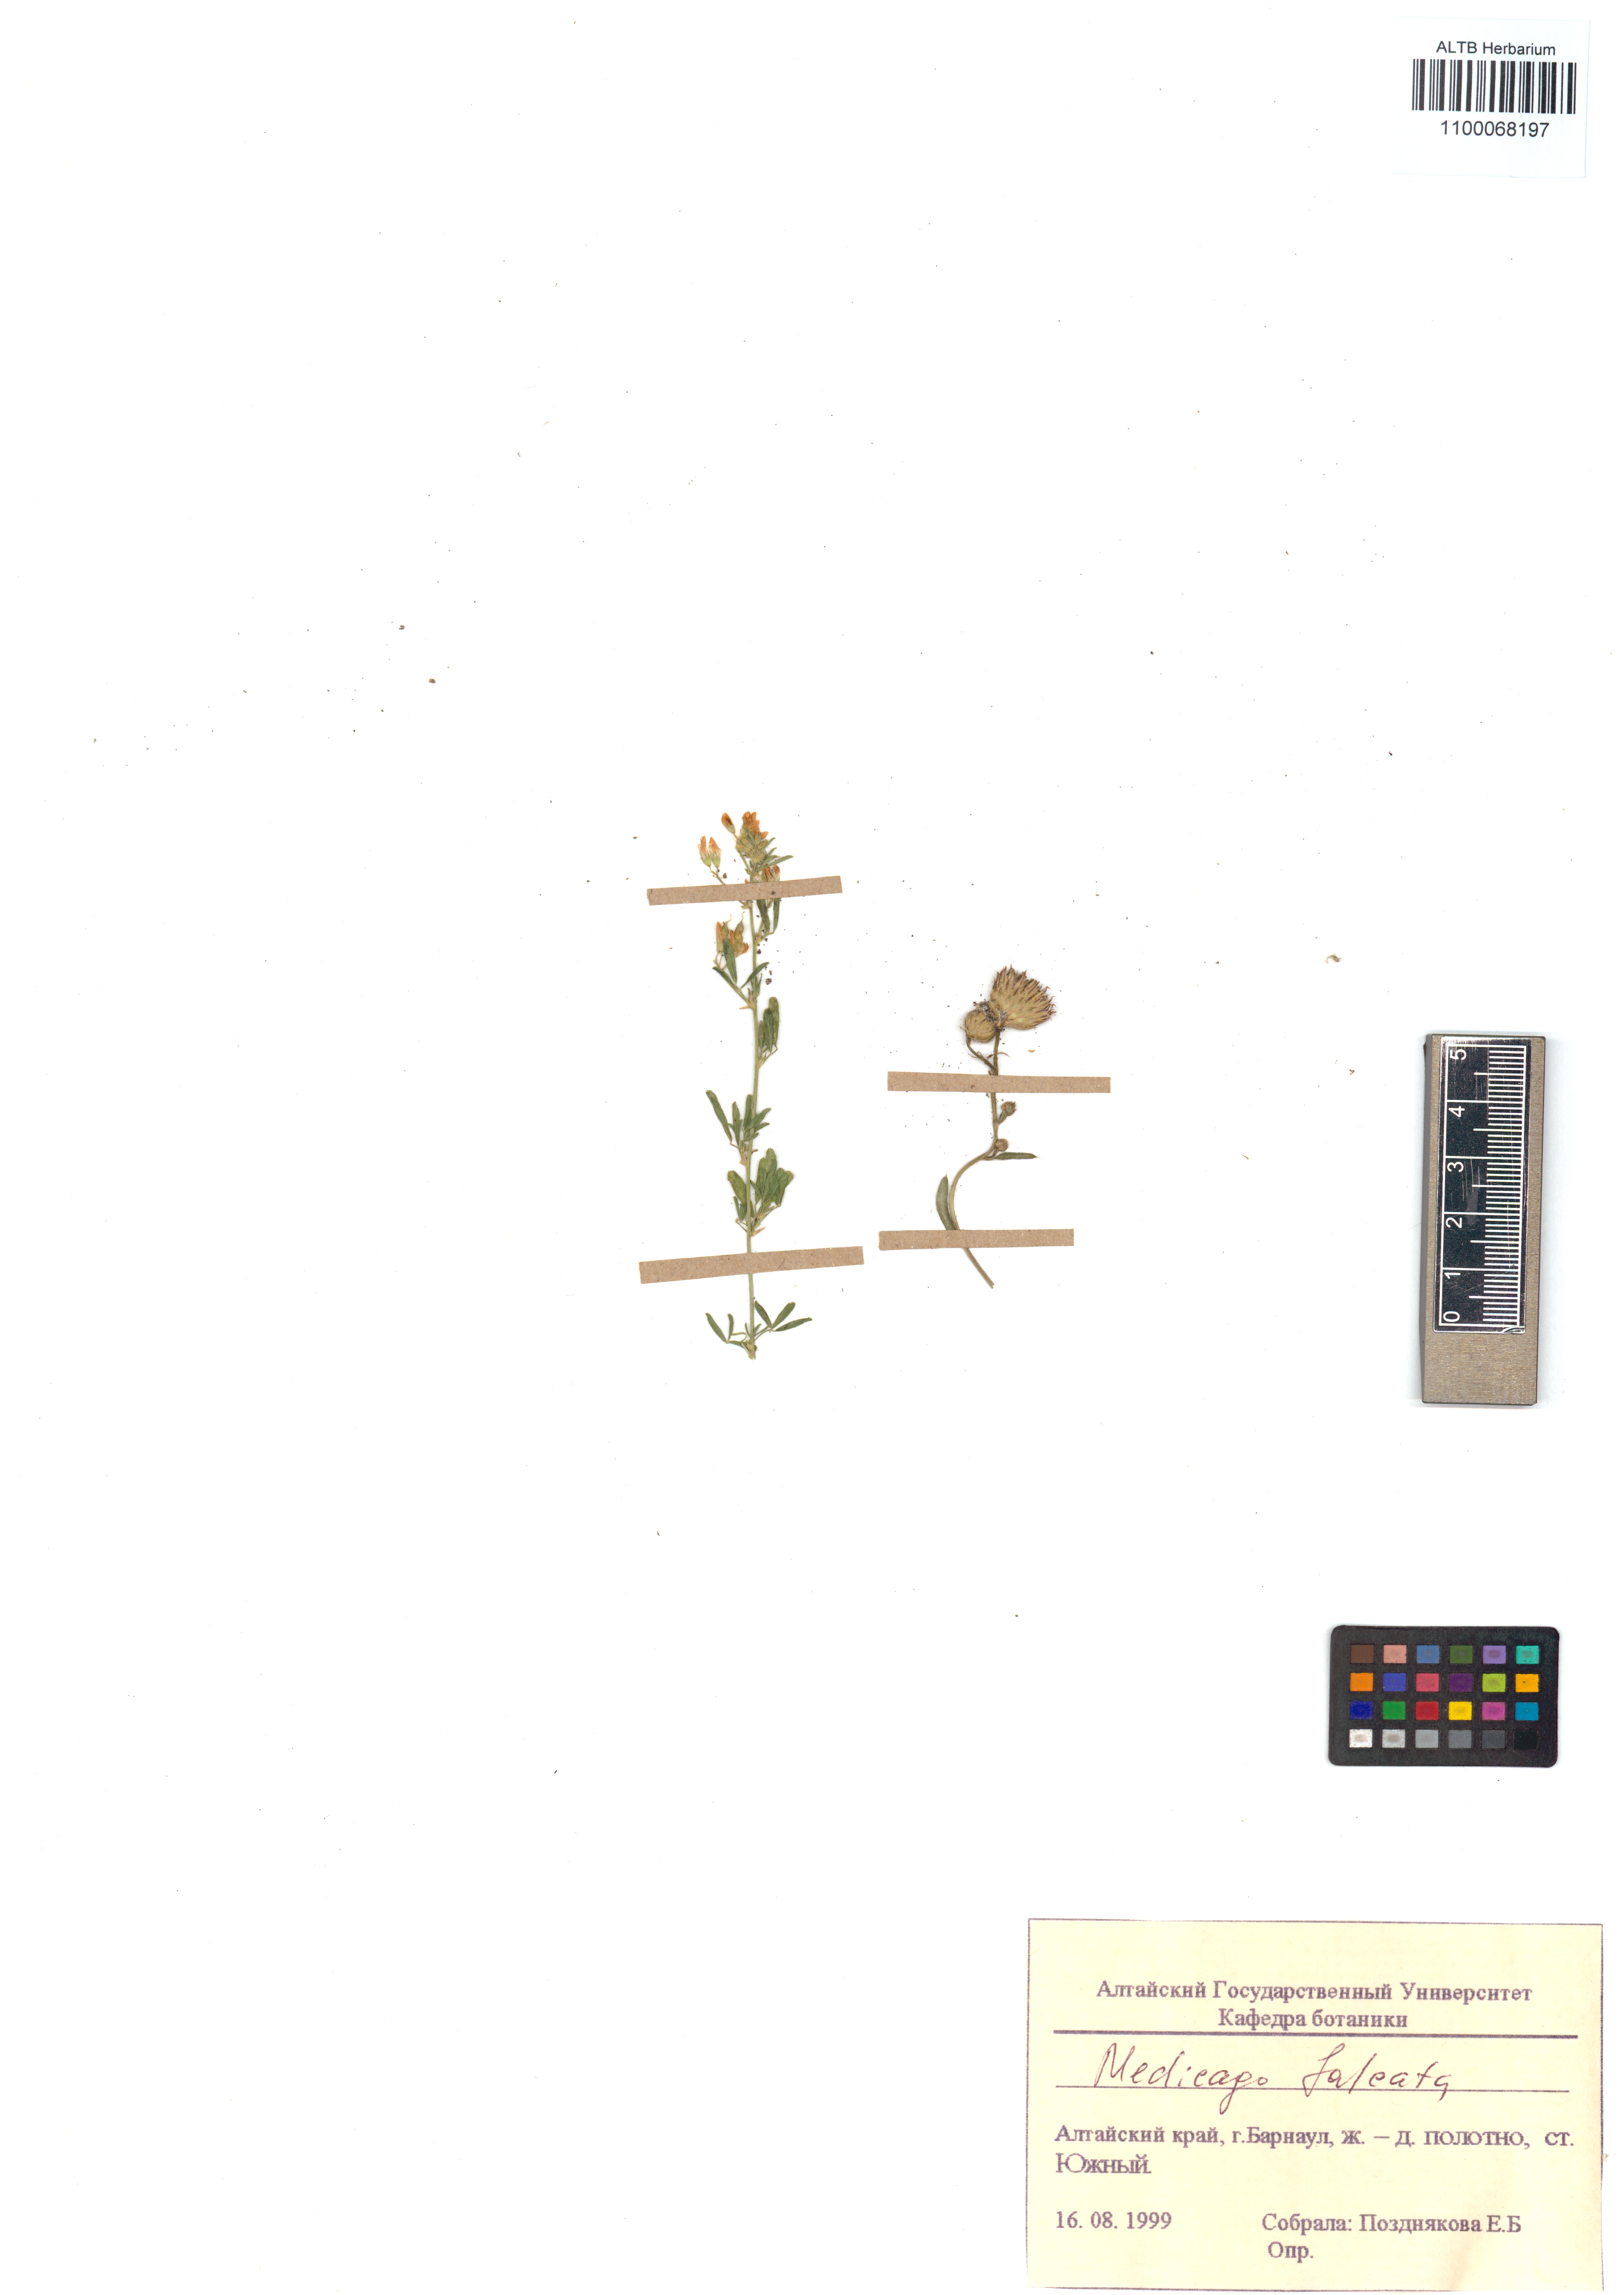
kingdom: Plantae
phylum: Tracheophyta
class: Magnoliopsida
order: Fabales
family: Fabaceae
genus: Medicago
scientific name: Medicago falcata
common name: Sickle medick
